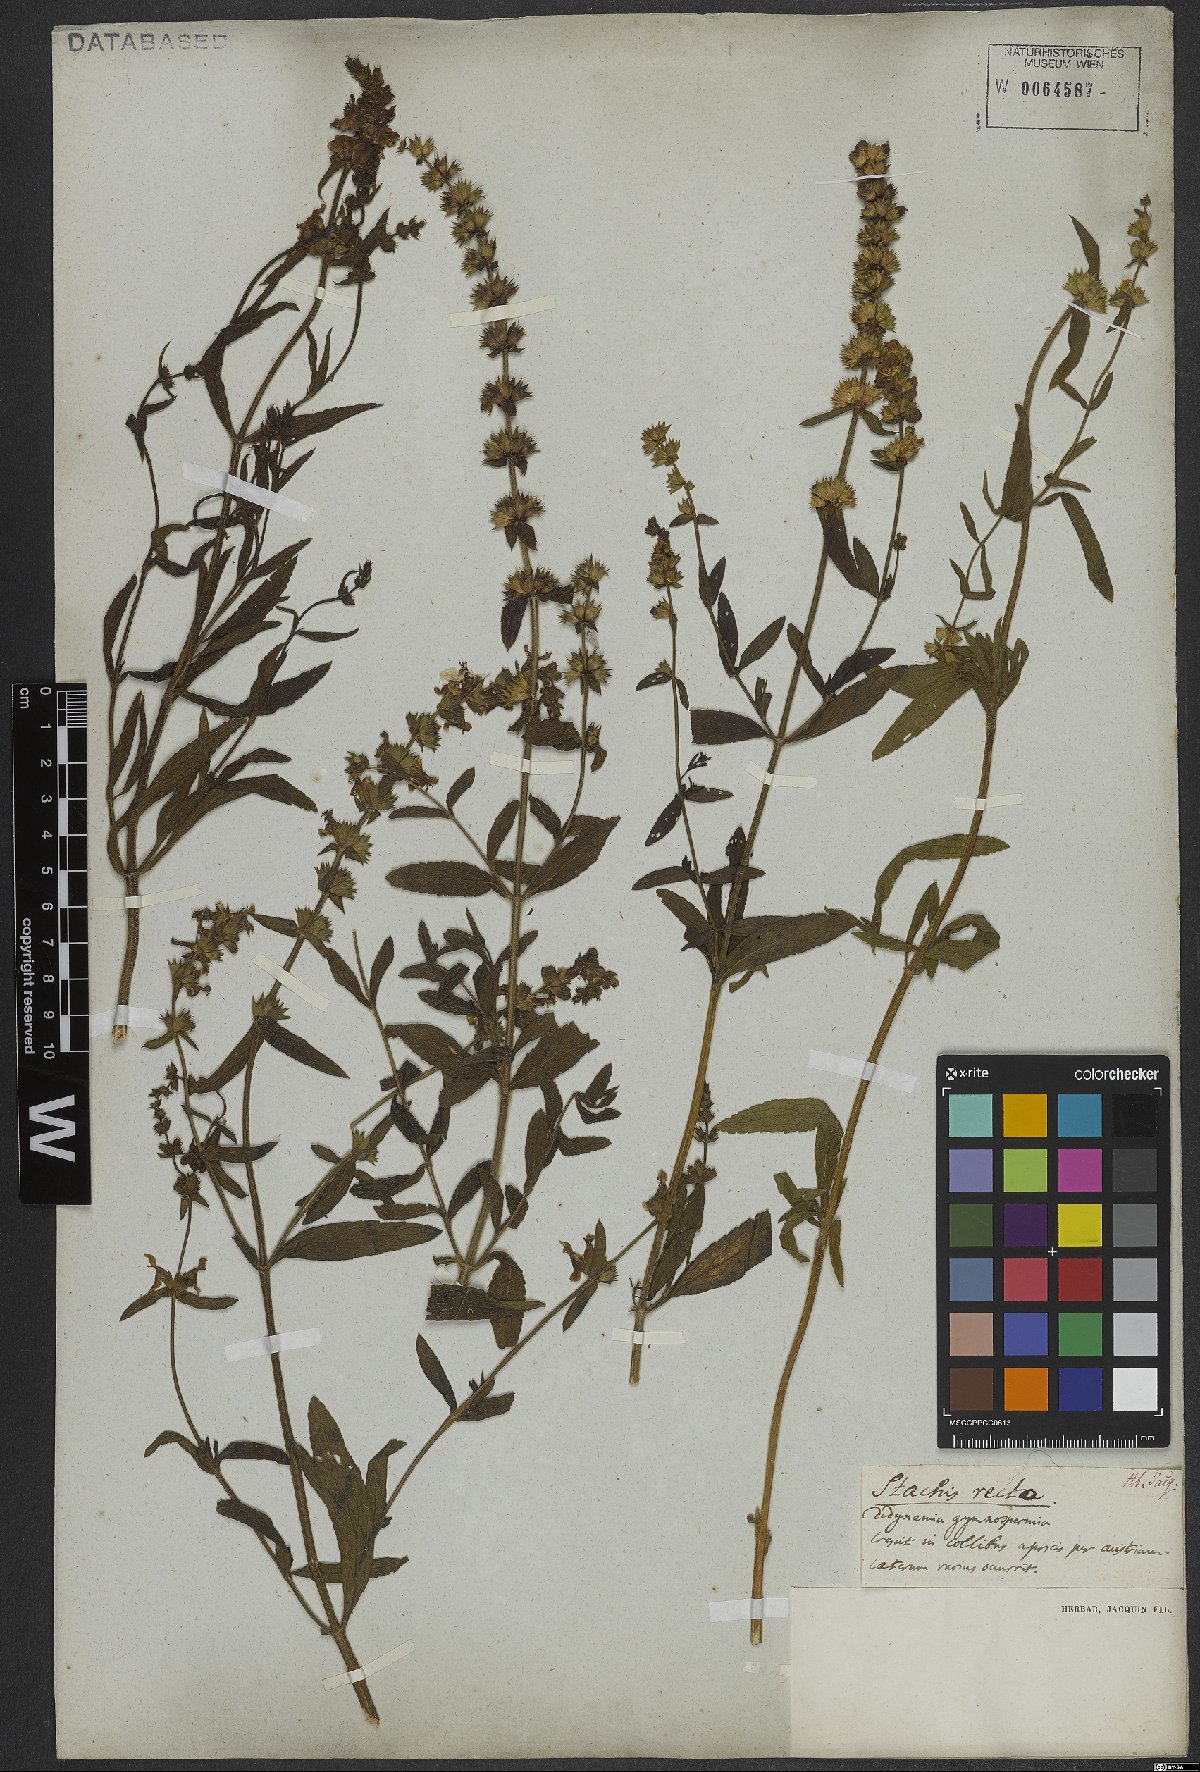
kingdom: Plantae
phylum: Tracheophyta
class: Magnoliopsida
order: Lamiales
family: Lamiaceae
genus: Stachys
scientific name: Stachys recta
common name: Perennial yellow-woundwort
